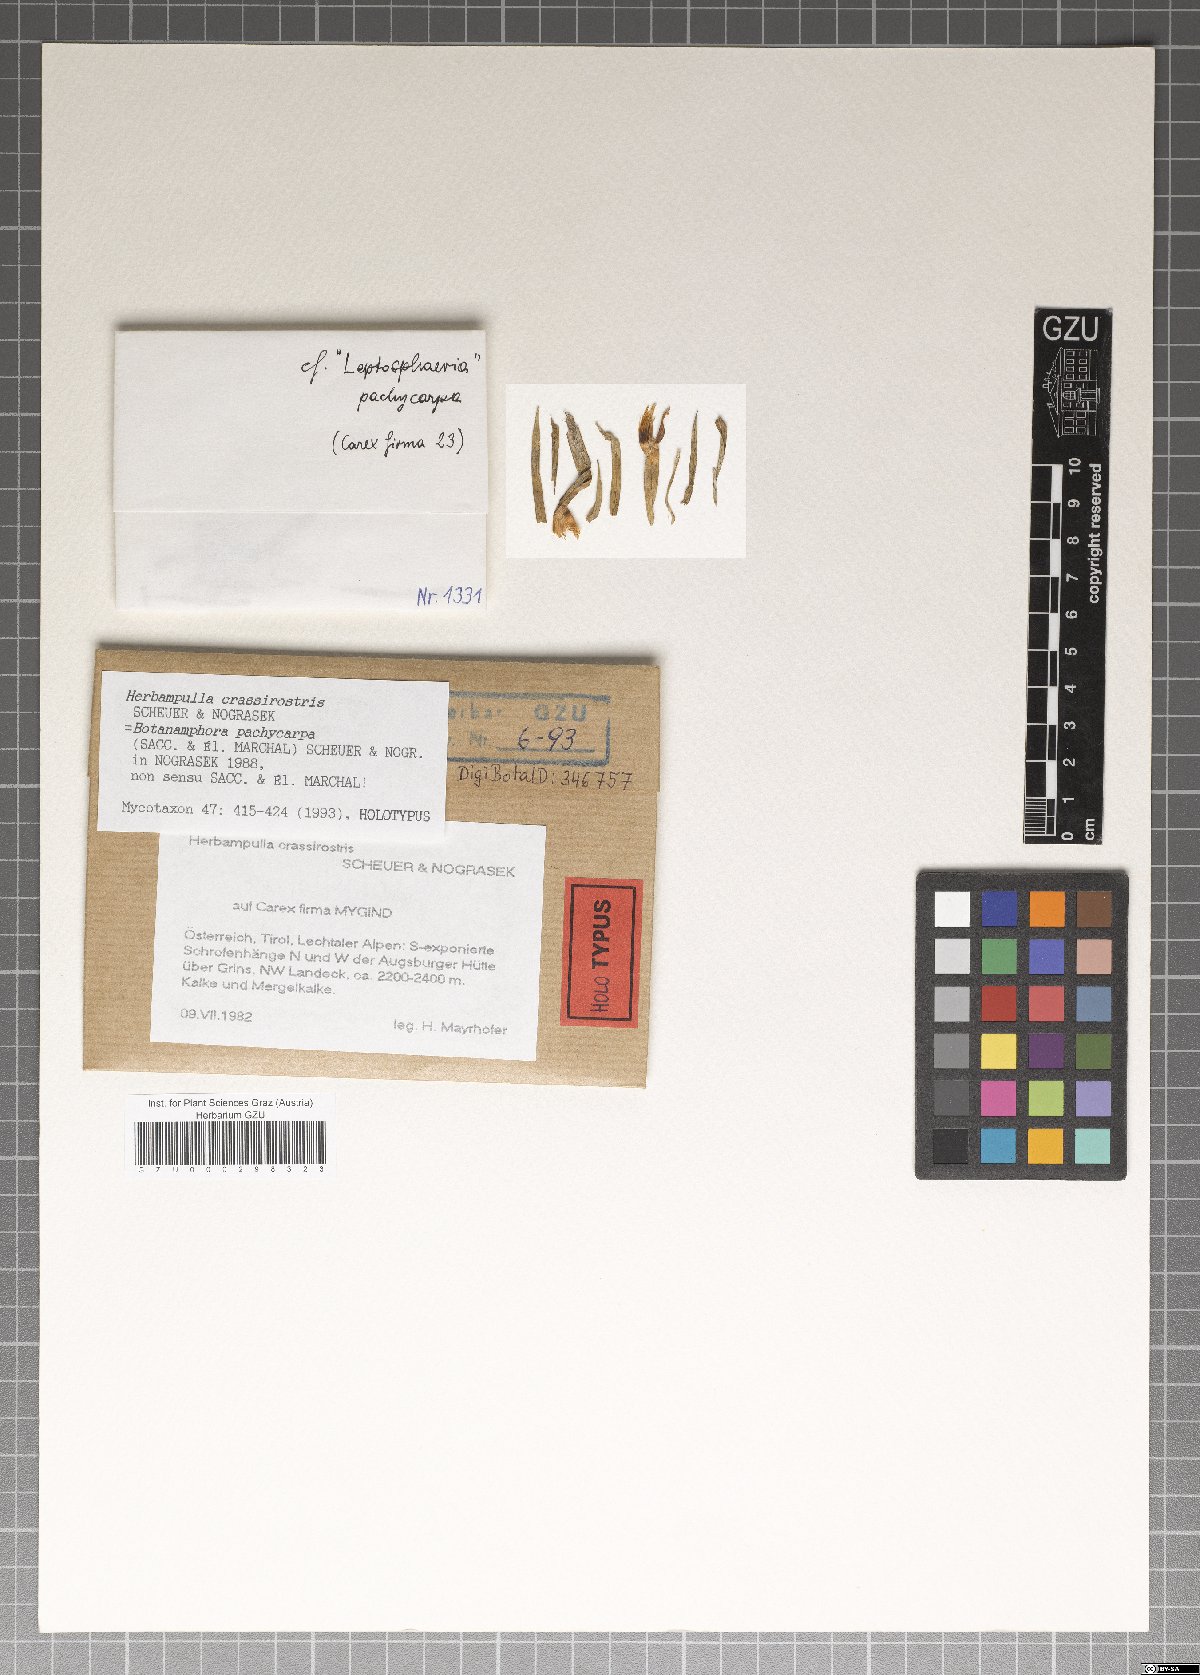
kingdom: Fungi
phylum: Ascomycota
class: Sordariomycetes
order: Magnaporthales
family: Magnaporthaceae
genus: Herbampulla
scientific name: Herbampulla crassirostris
